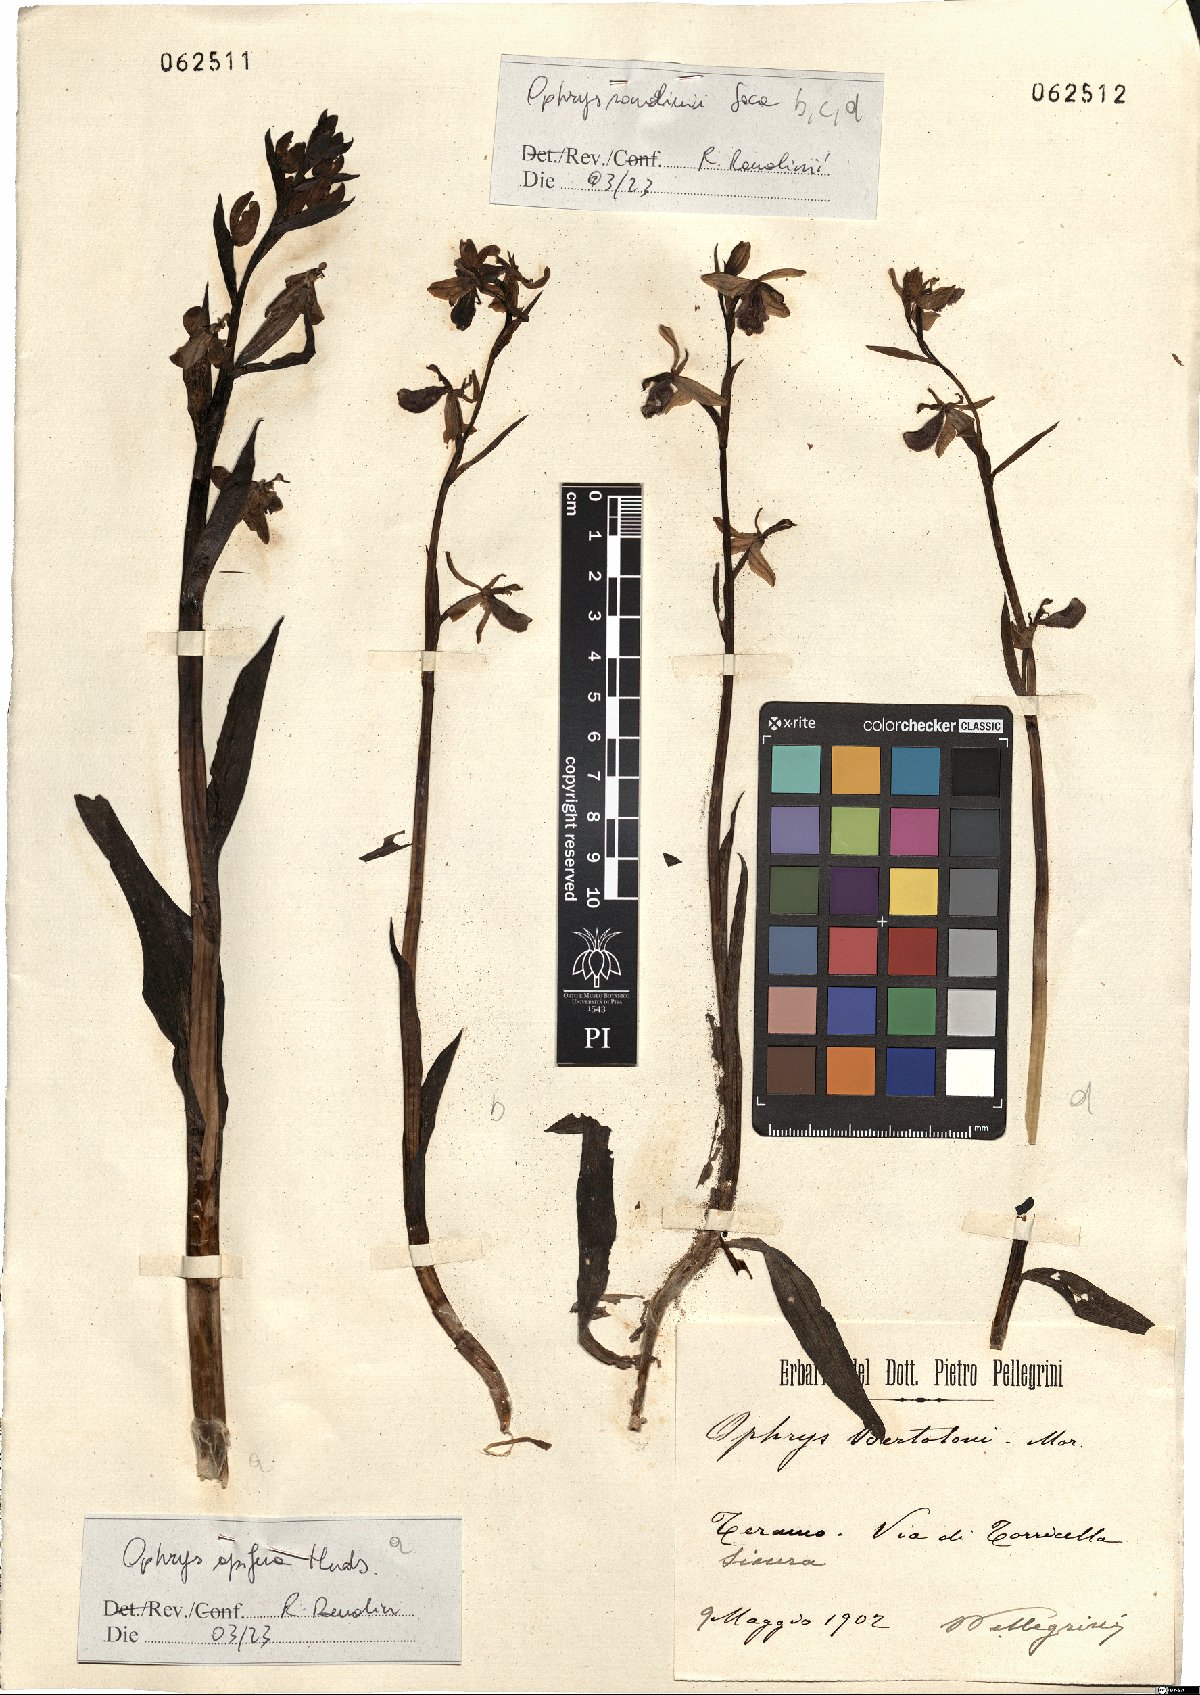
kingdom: Plantae
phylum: Tracheophyta
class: Liliopsida
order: Asparagales
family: Orchidaceae
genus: Ophrys
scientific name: Ophrys bertolonii
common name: Bertoloni's bee orchid
